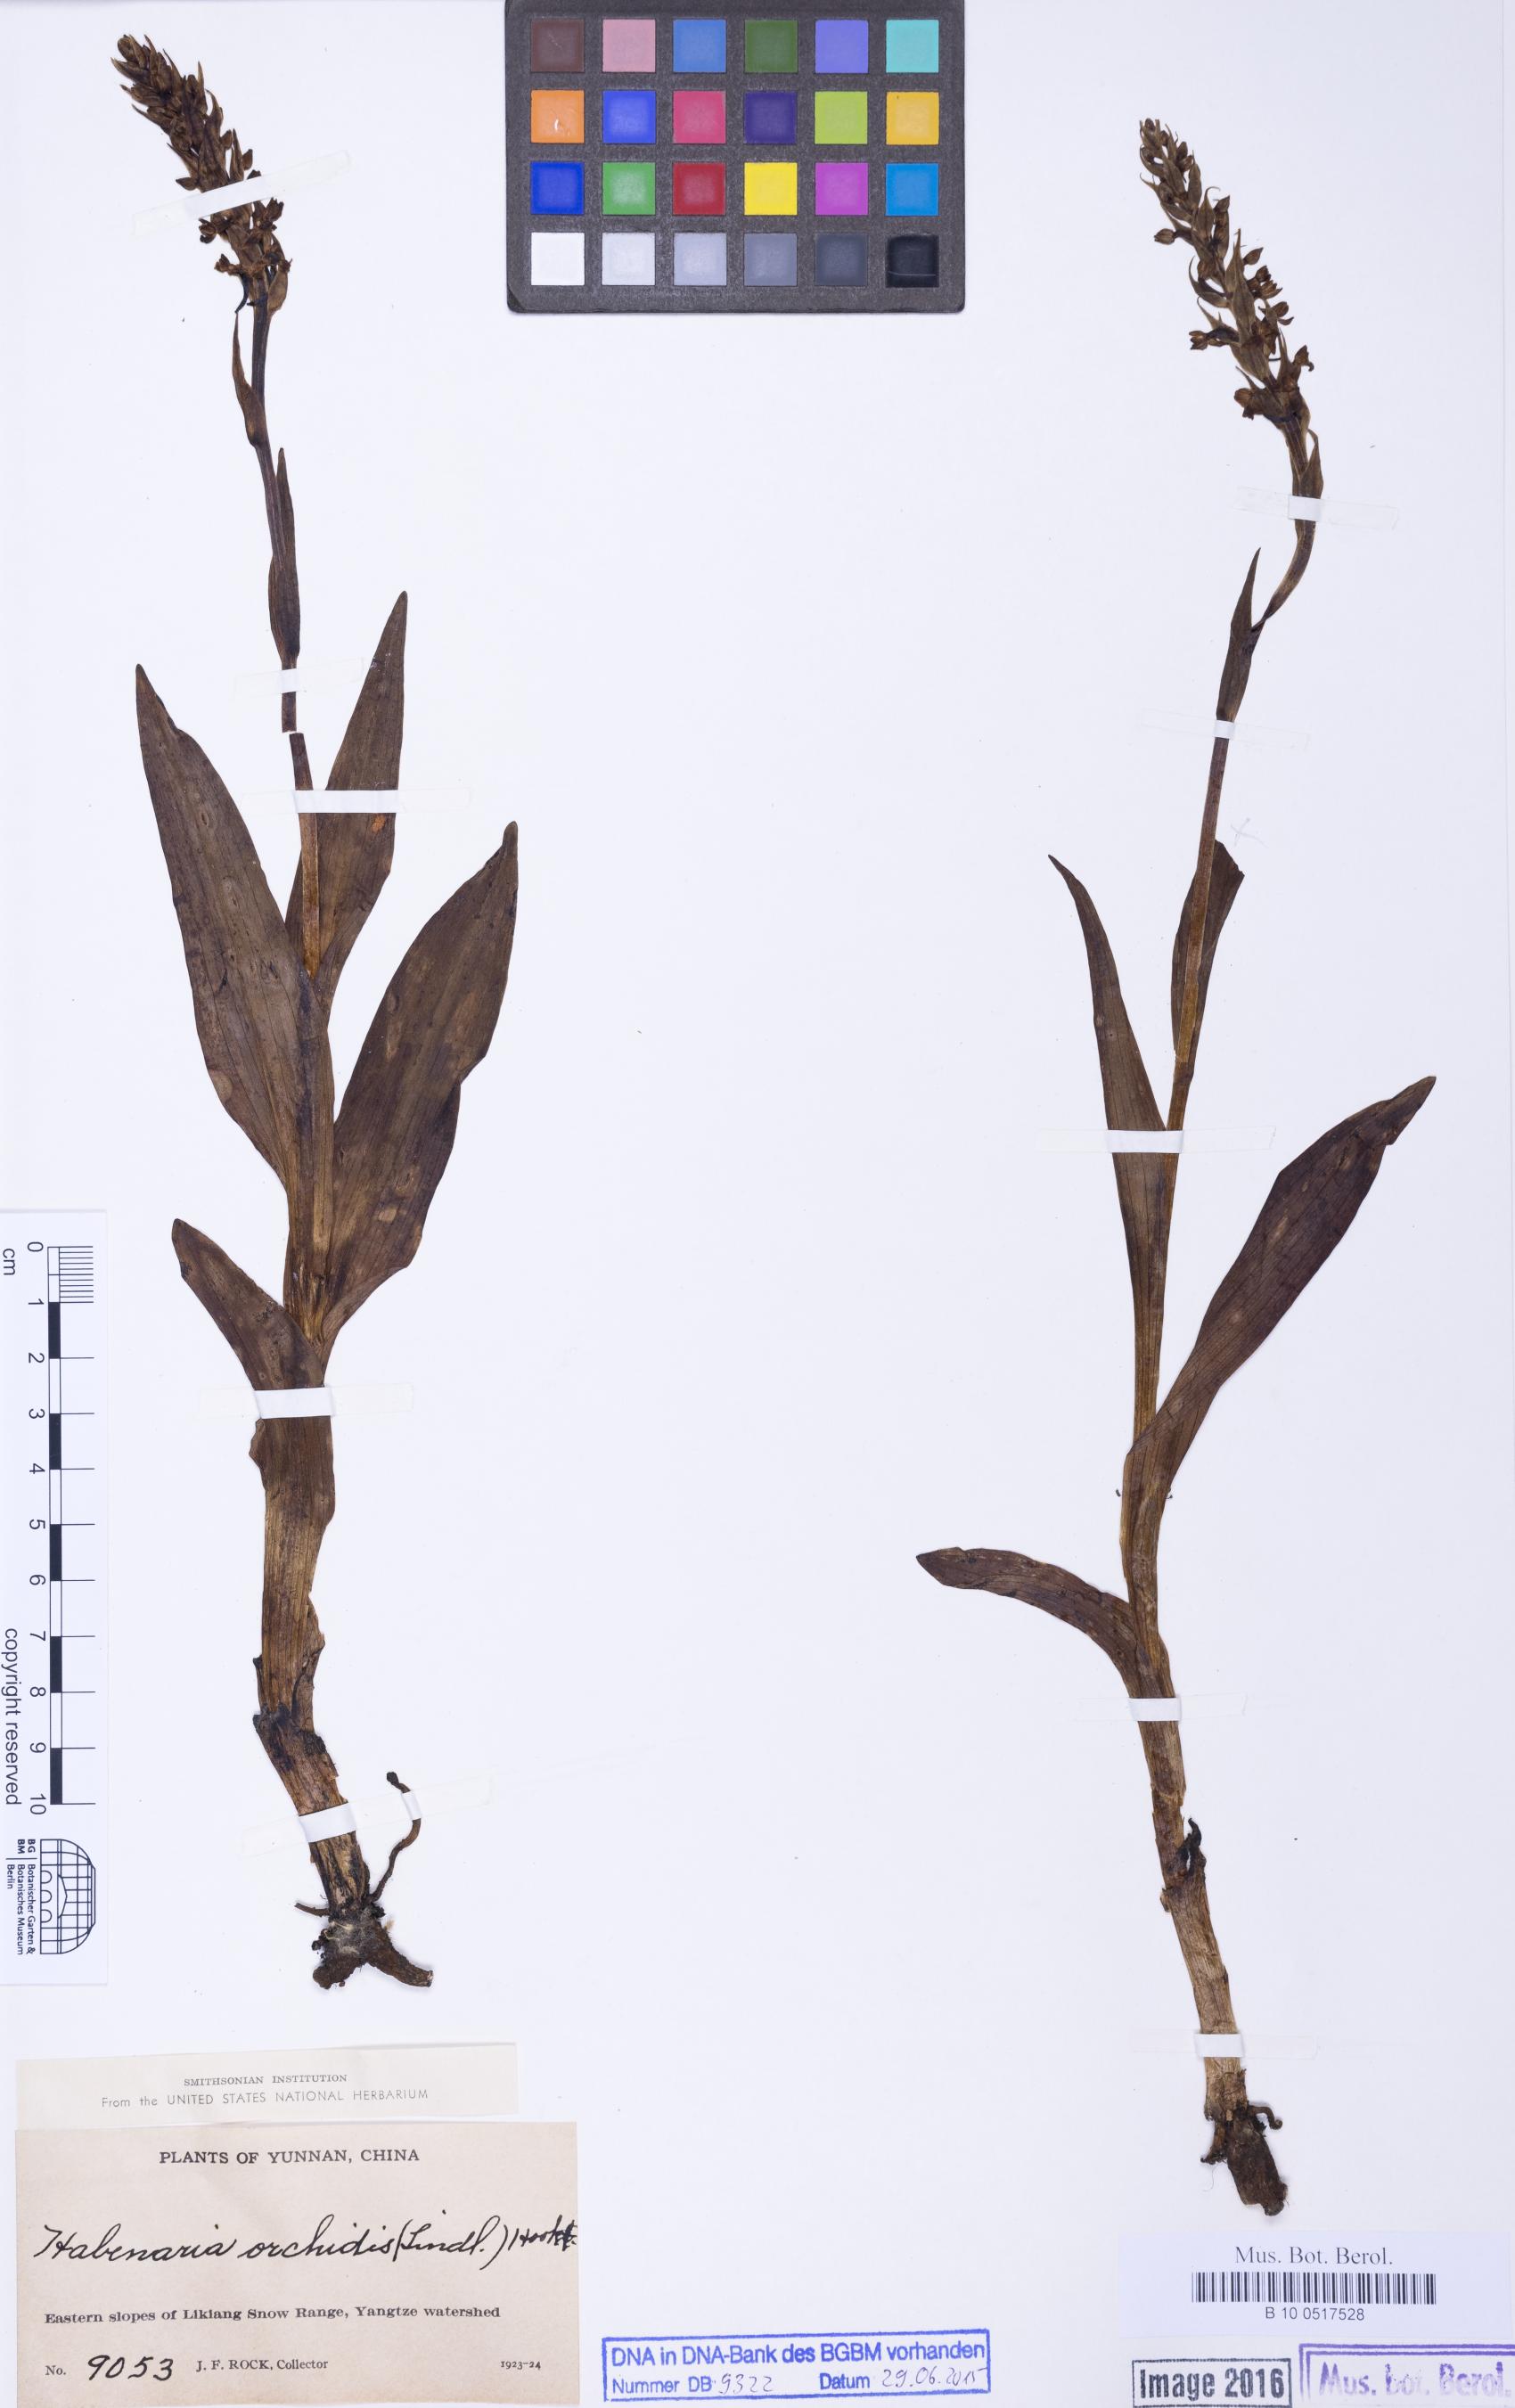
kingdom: Plantae
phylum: Tracheophyta
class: Liliopsida
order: Asparagales
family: Orchidaceae
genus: Gymnadenia
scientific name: Gymnadenia orchidis
